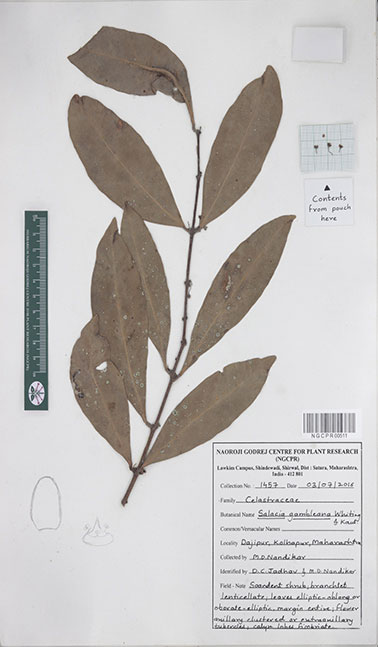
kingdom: Plantae
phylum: Tracheophyta
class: Magnoliopsida
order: Celastrales
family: Celastraceae
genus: Salacia
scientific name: Salacia gambleana
